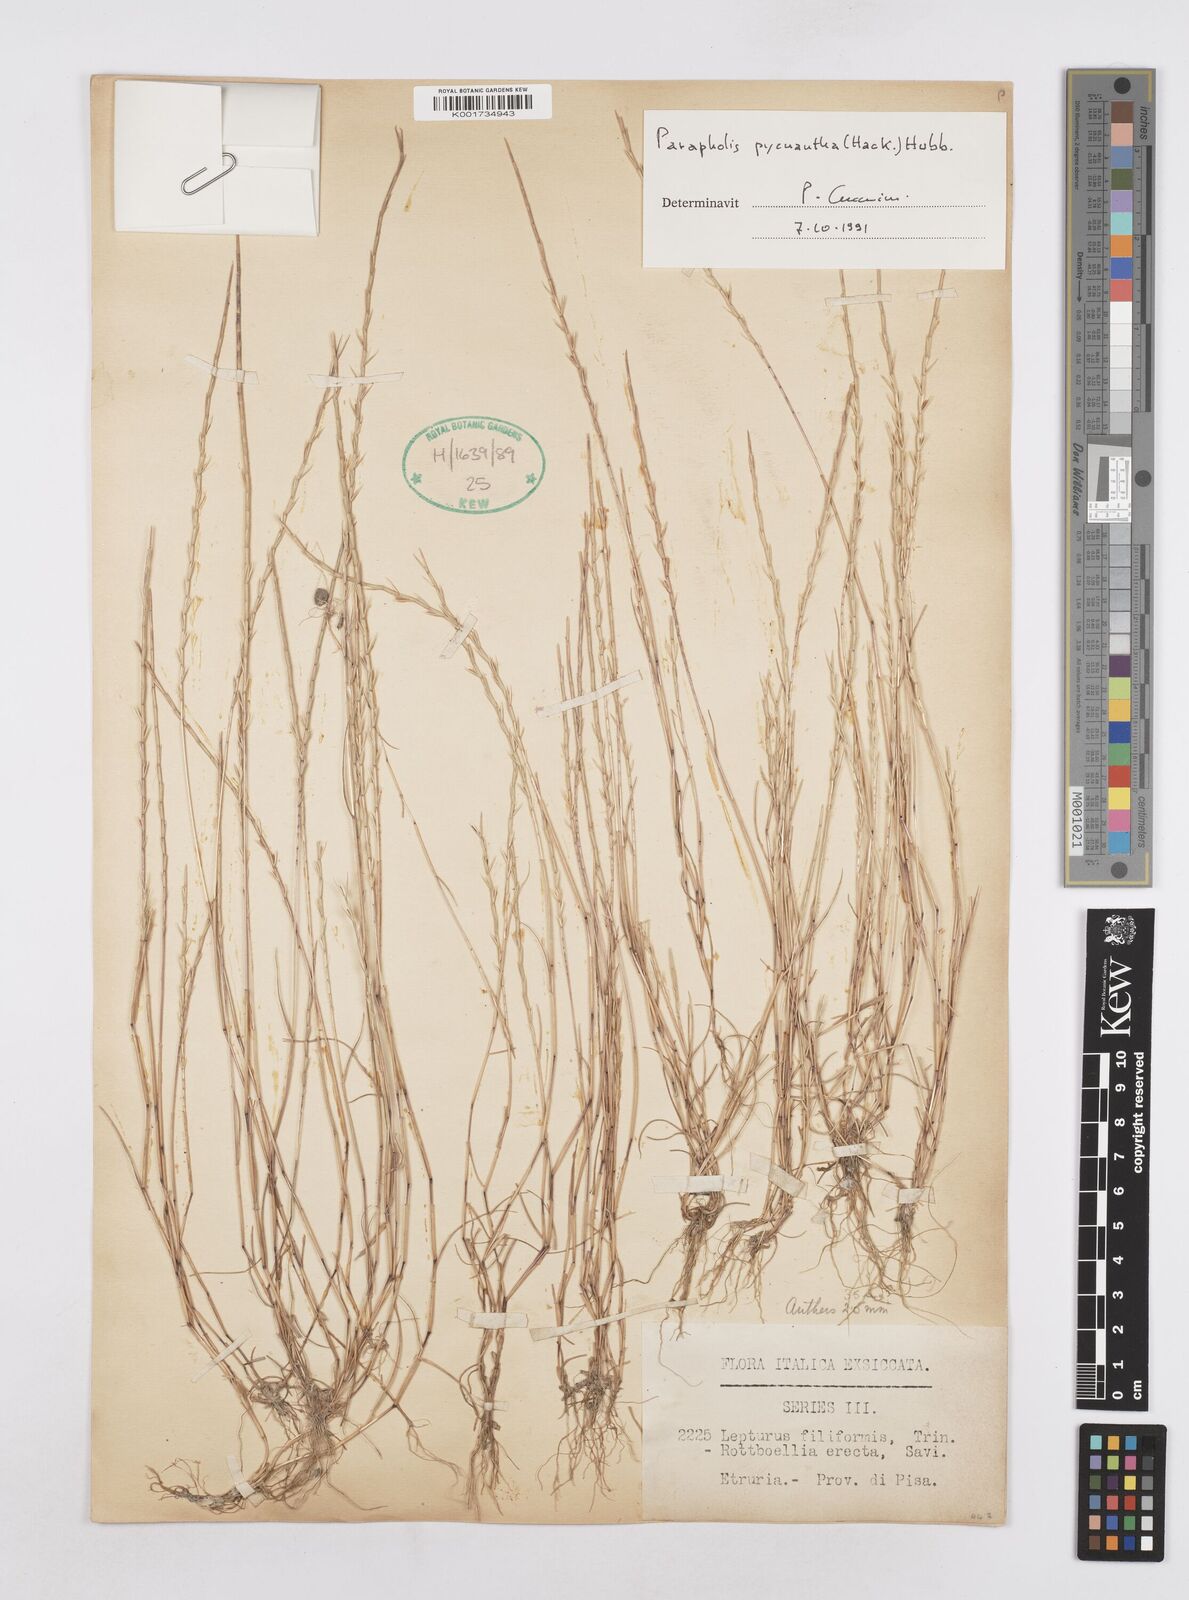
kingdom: Plantae
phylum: Tracheophyta
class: Liliopsida
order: Poales
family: Poaceae
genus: Parapholis
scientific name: Parapholis pycnantha
